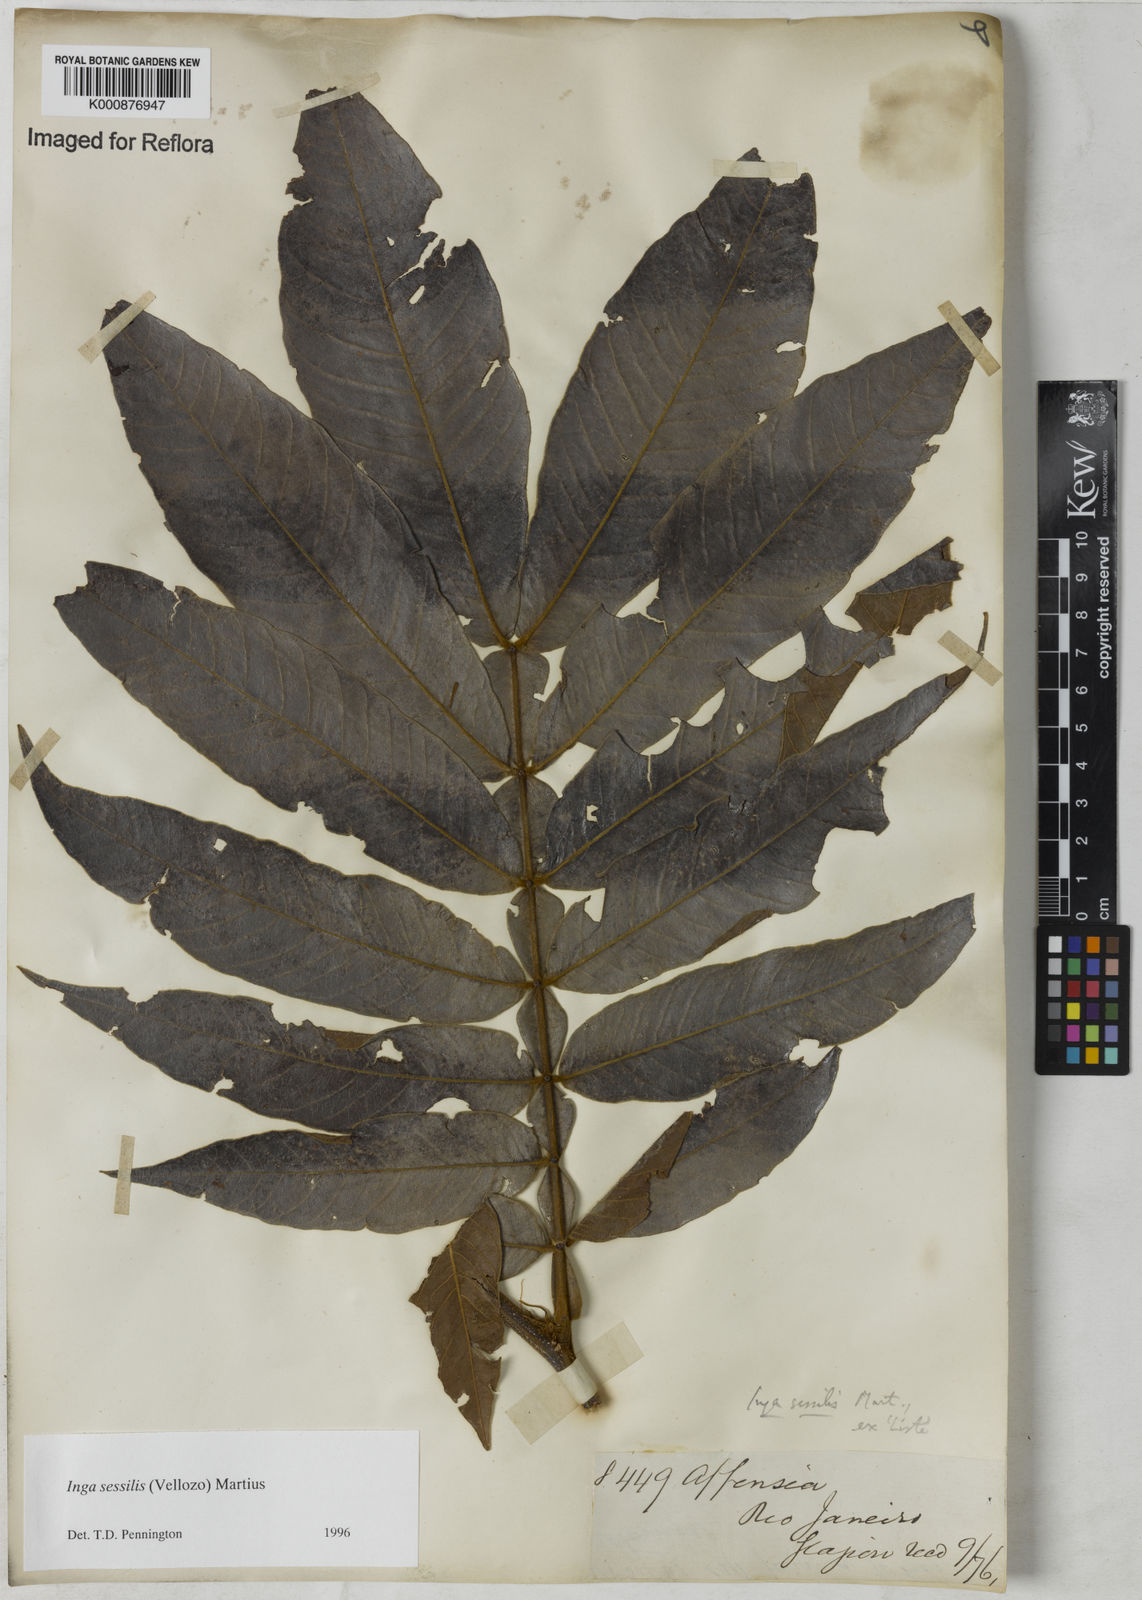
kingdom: Plantae
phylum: Tracheophyta
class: Magnoliopsida
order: Fabales
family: Fabaceae
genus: Inga
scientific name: Inga sessilis
